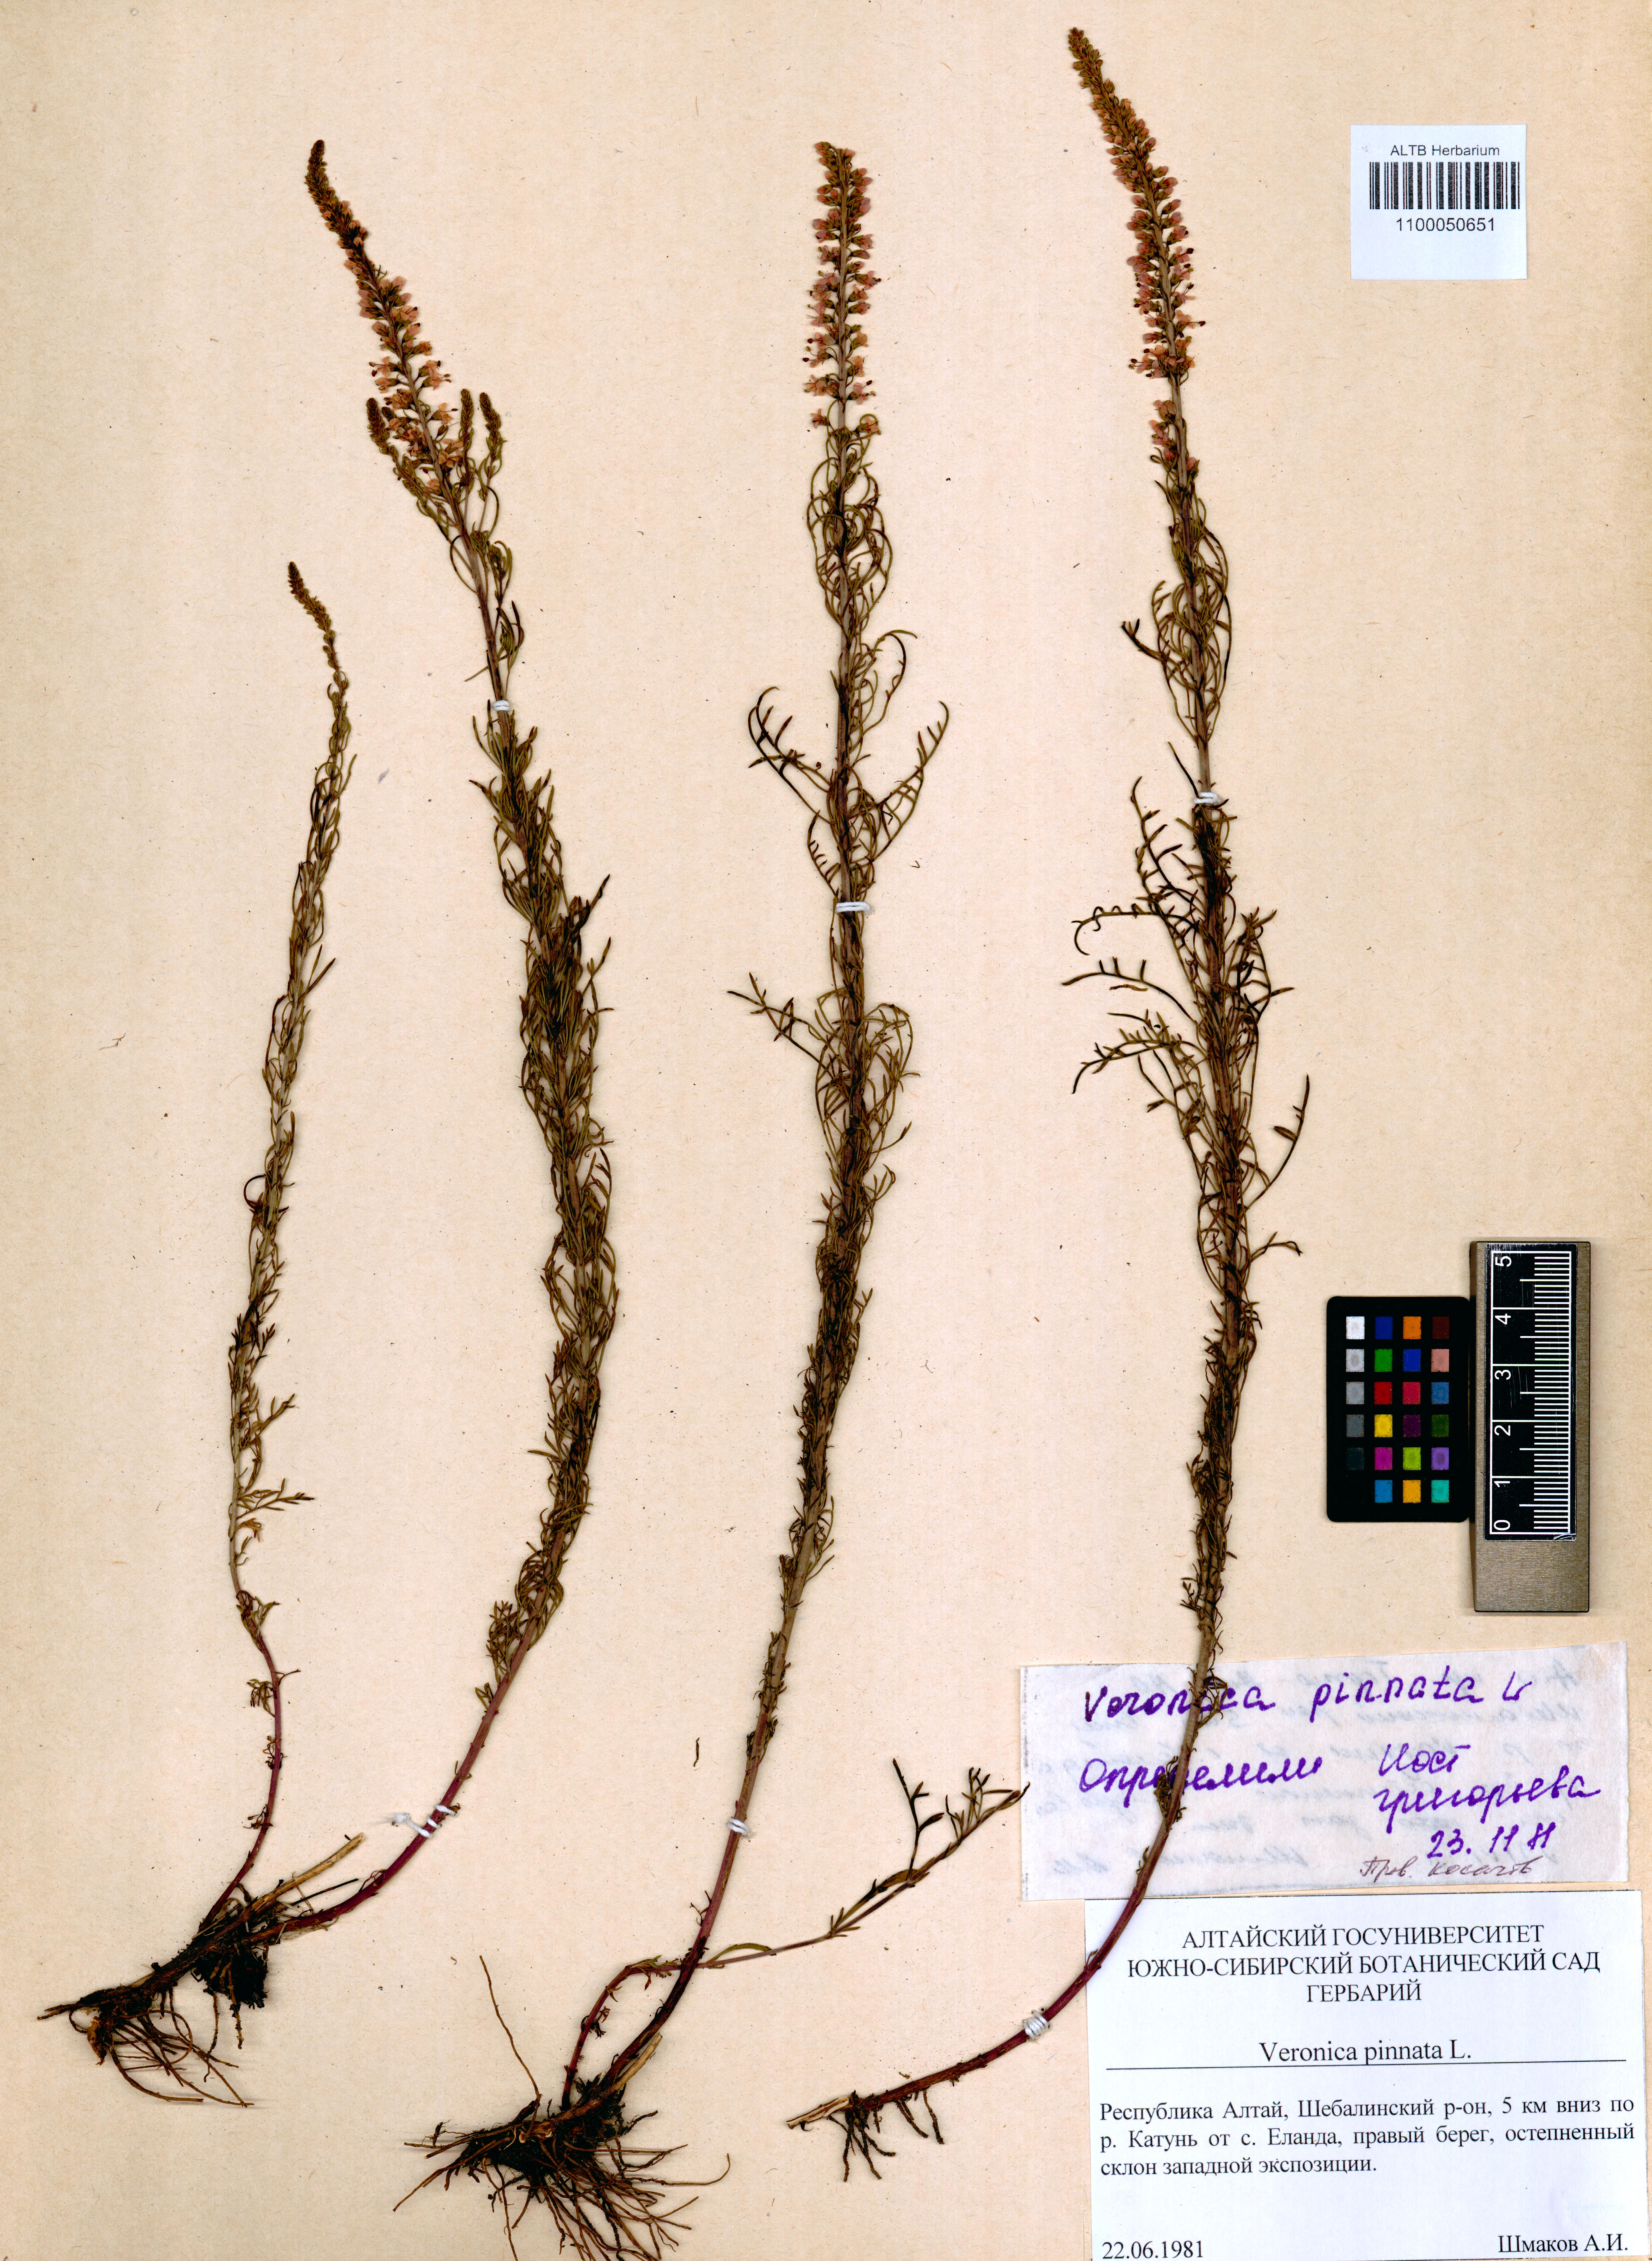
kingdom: Plantae
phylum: Tracheophyta
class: Magnoliopsida
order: Lamiales
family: Plantaginaceae
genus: Veronica
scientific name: Veronica pinnata
